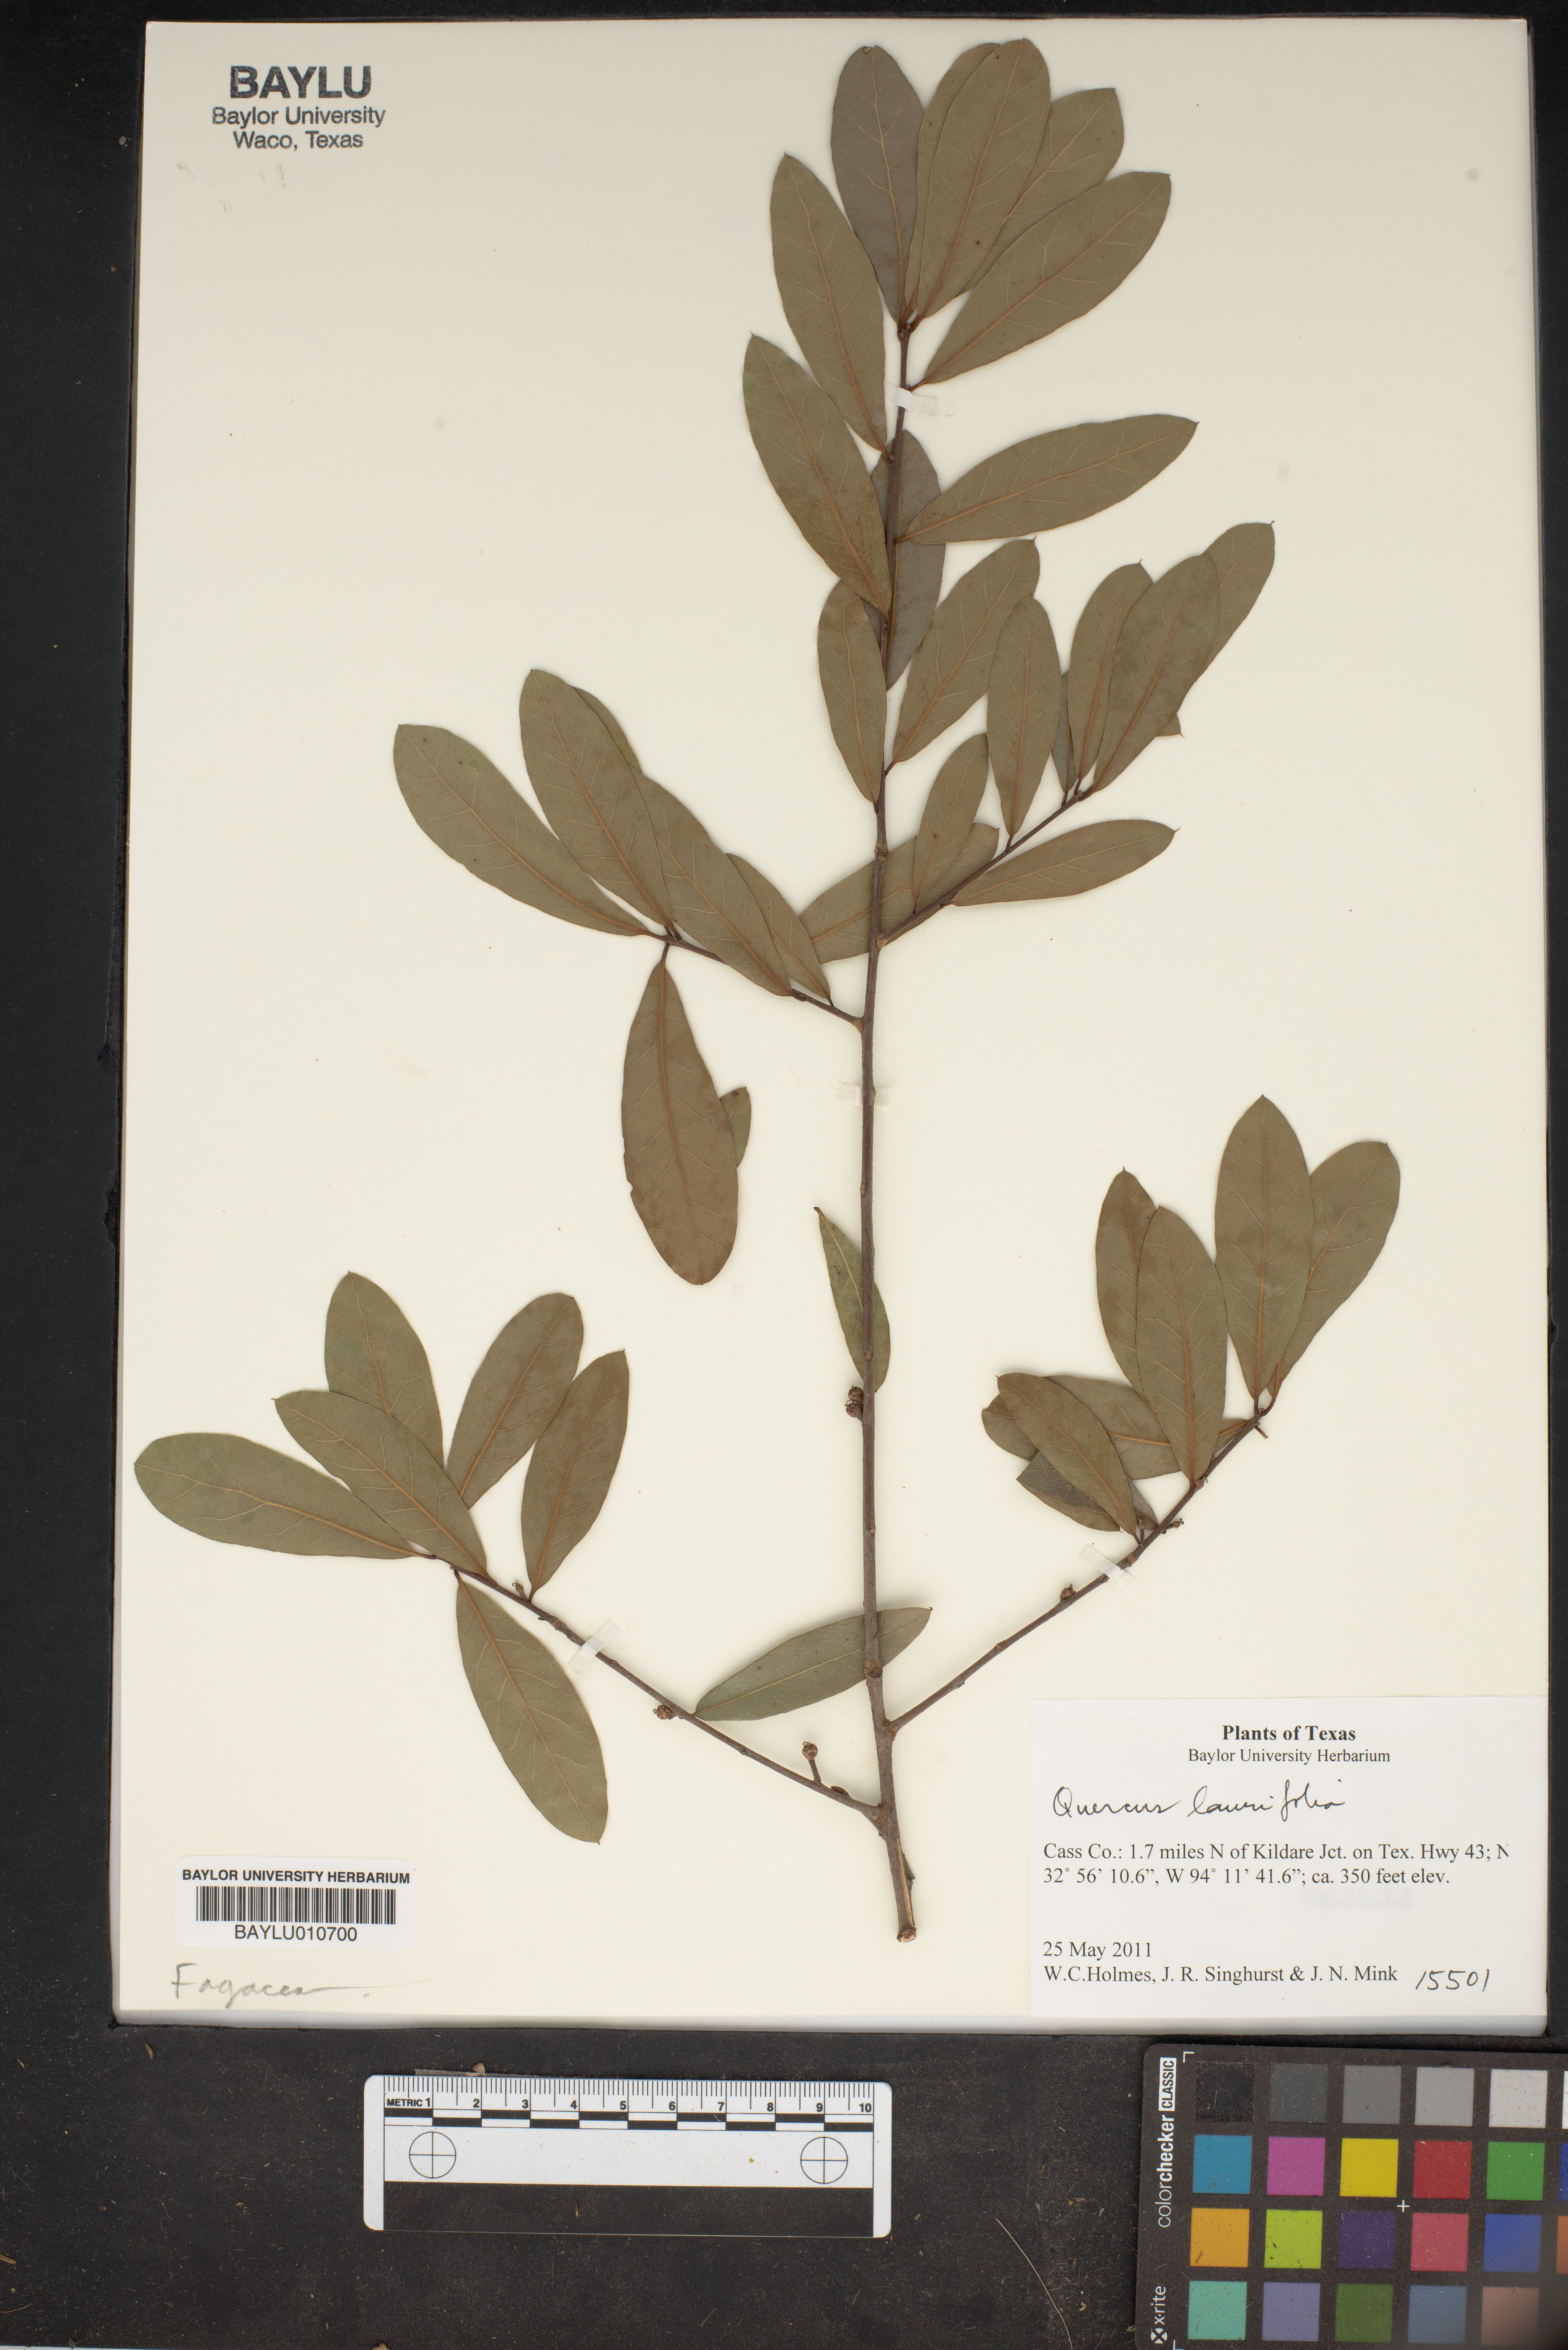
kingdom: Plantae
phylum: Tracheophyta
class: Magnoliopsida
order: Fagales
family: Fagaceae
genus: Quercus
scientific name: Quercus laurifolia
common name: Swamp laurel oak
